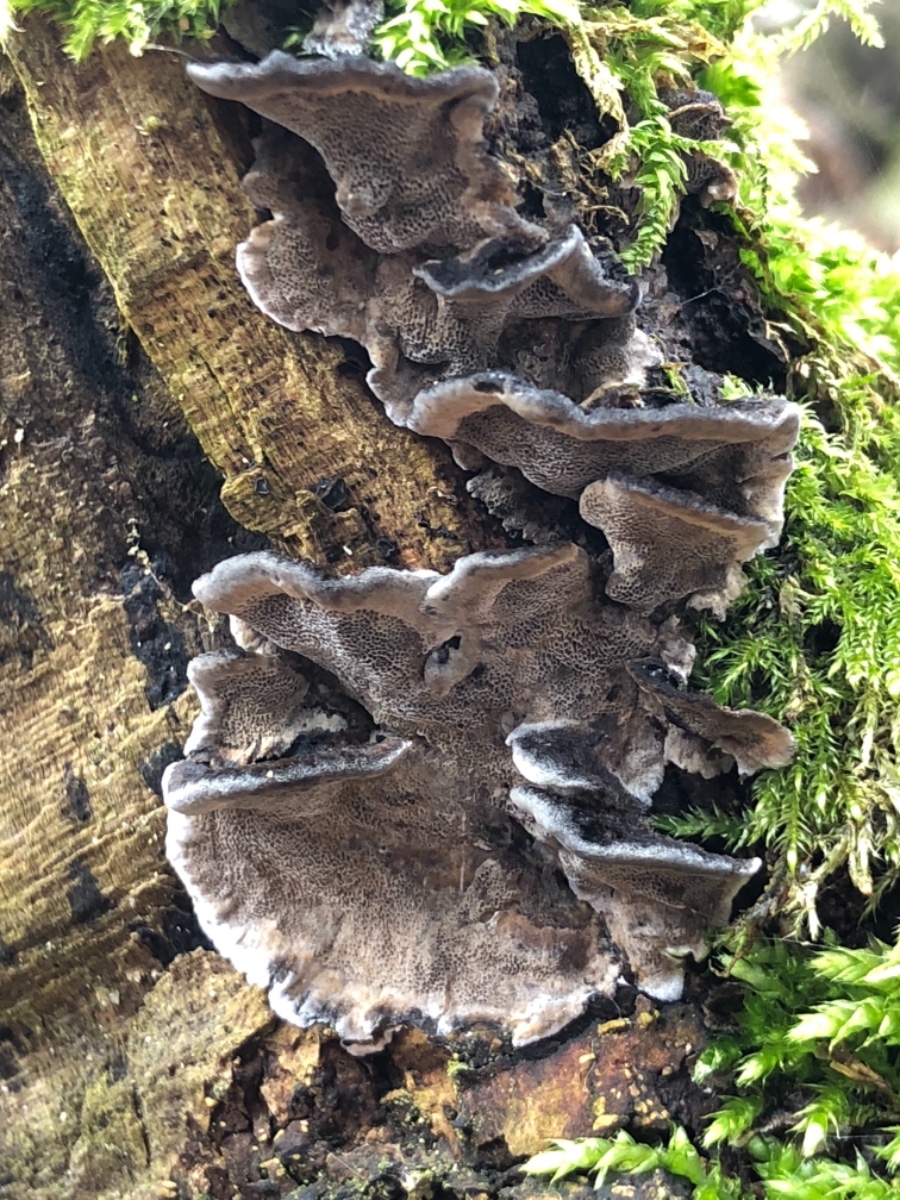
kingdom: Fungi
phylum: Basidiomycota
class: Agaricomycetes
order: Polyporales
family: Phanerochaetaceae
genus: Bjerkandera
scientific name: Bjerkandera adusta
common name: sveden sodporesvamp
